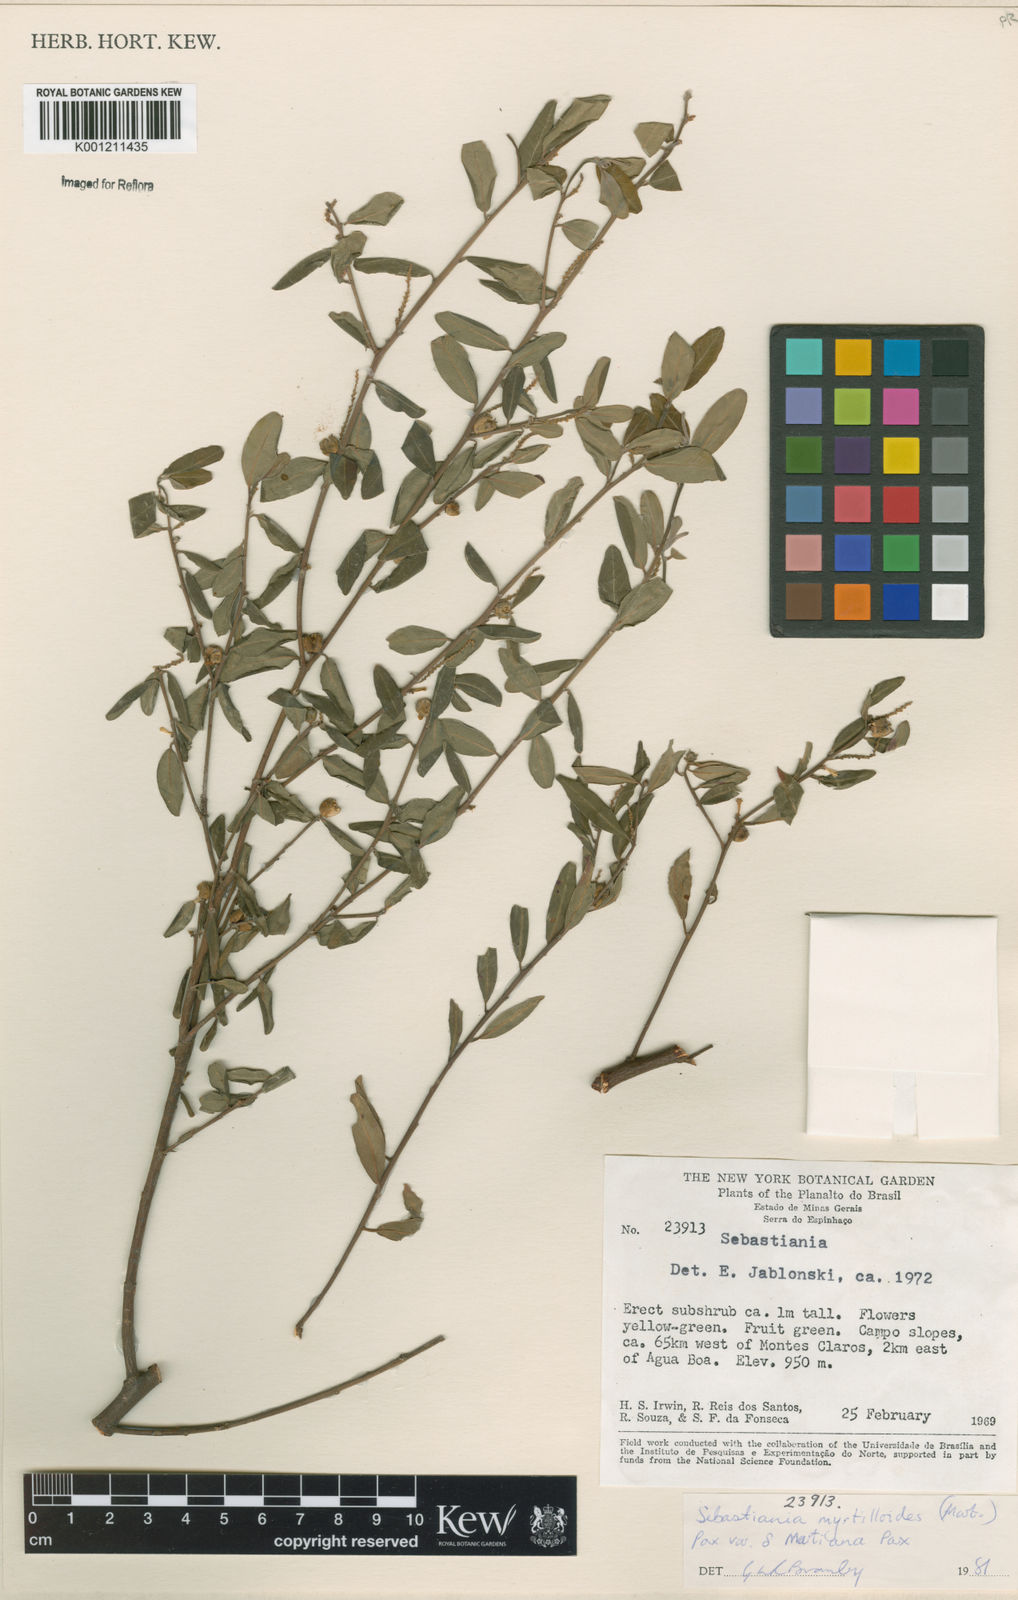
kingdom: Plantae
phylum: Tracheophyta
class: Magnoliopsida
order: Malpighiales
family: Euphorbiaceae
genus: Microstachys
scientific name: Microstachys
